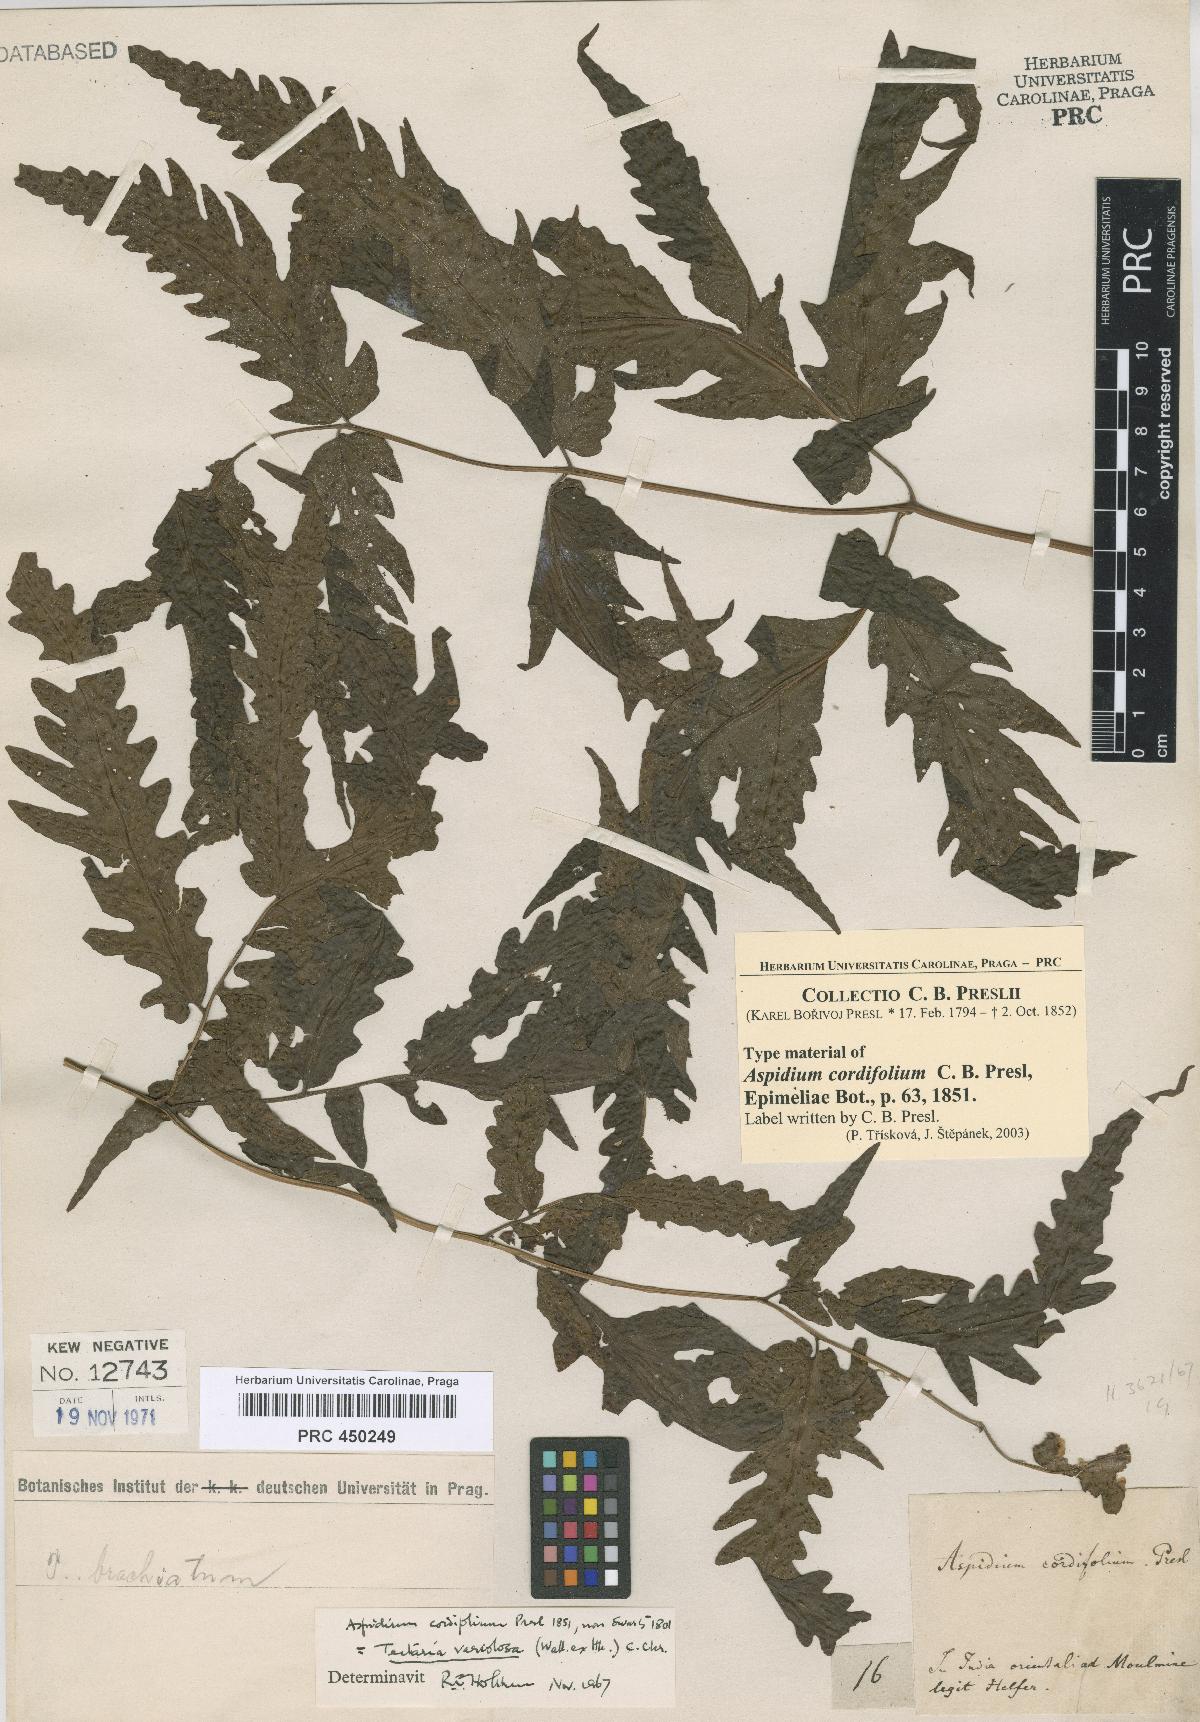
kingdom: Plantae
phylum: Tracheophyta
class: Polypodiopsida
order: Polypodiales
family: Tectariaceae
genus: Tectaria
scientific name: Tectaria impressa
